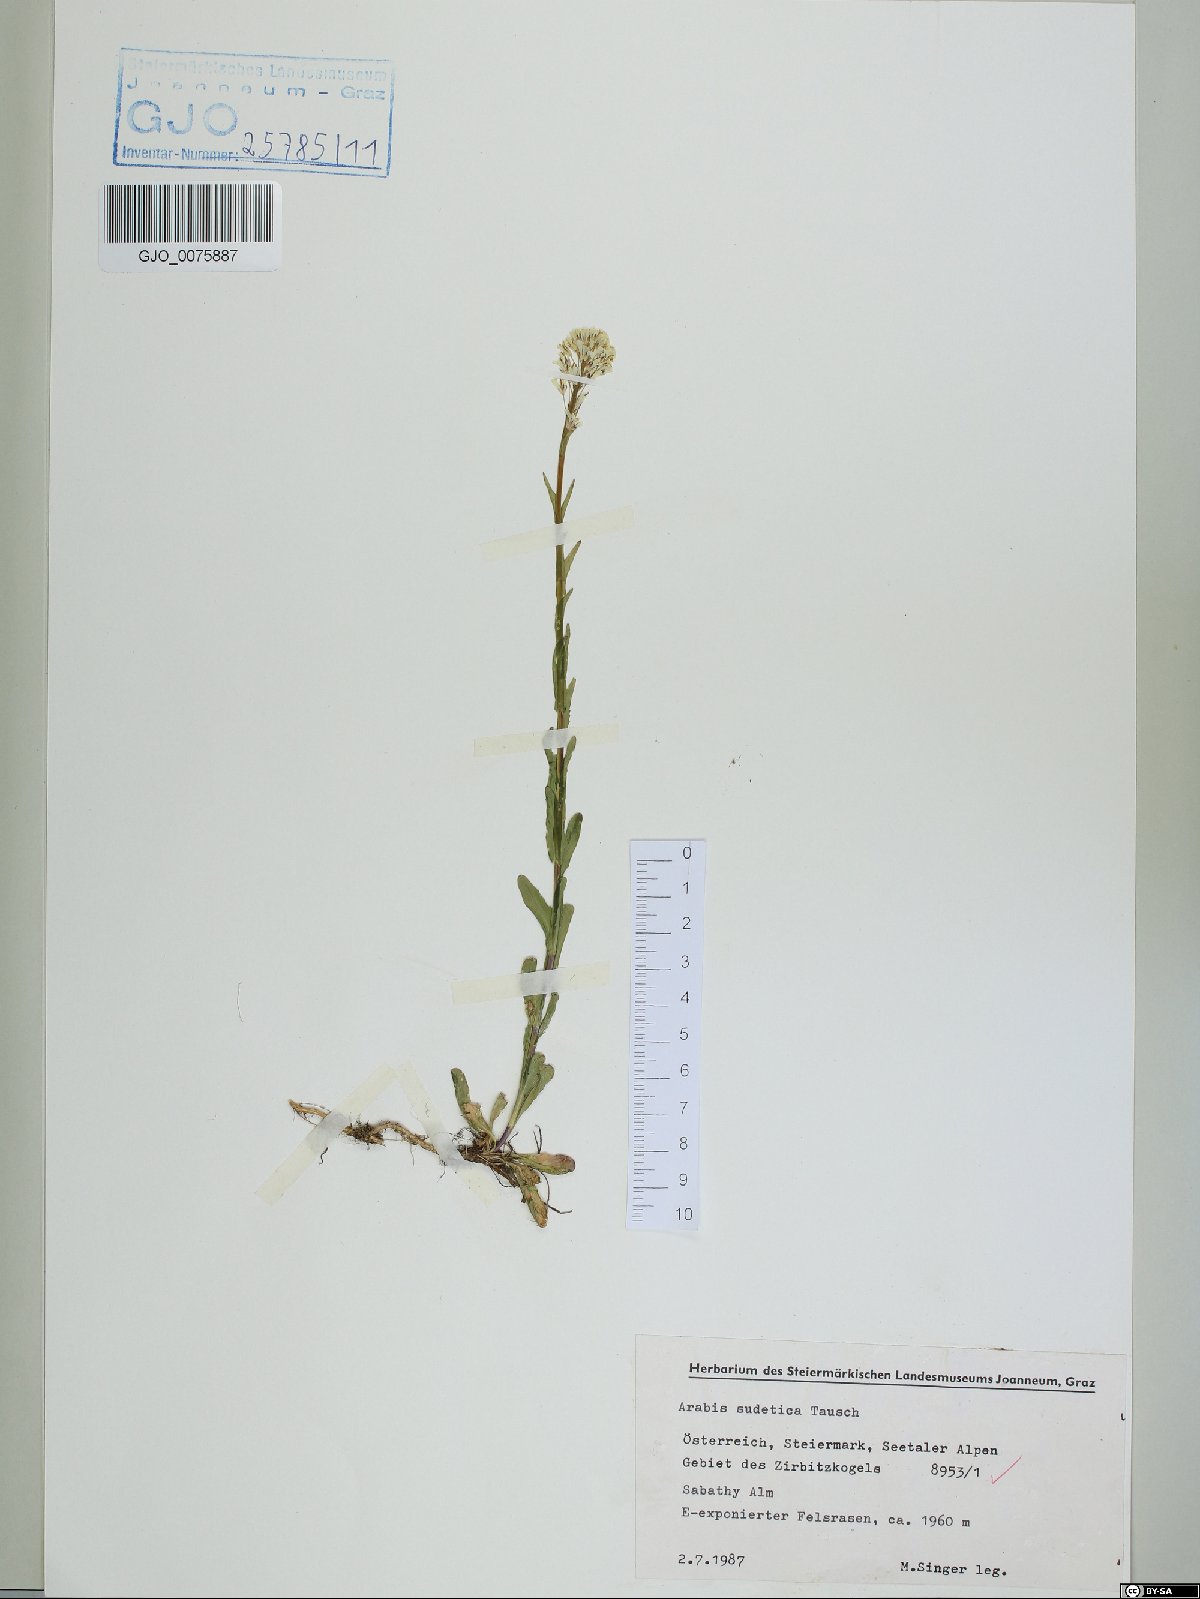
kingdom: Plantae
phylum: Tracheophyta
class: Magnoliopsida
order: Brassicales
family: Brassicaceae
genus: Arabis
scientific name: Arabis sudetica
